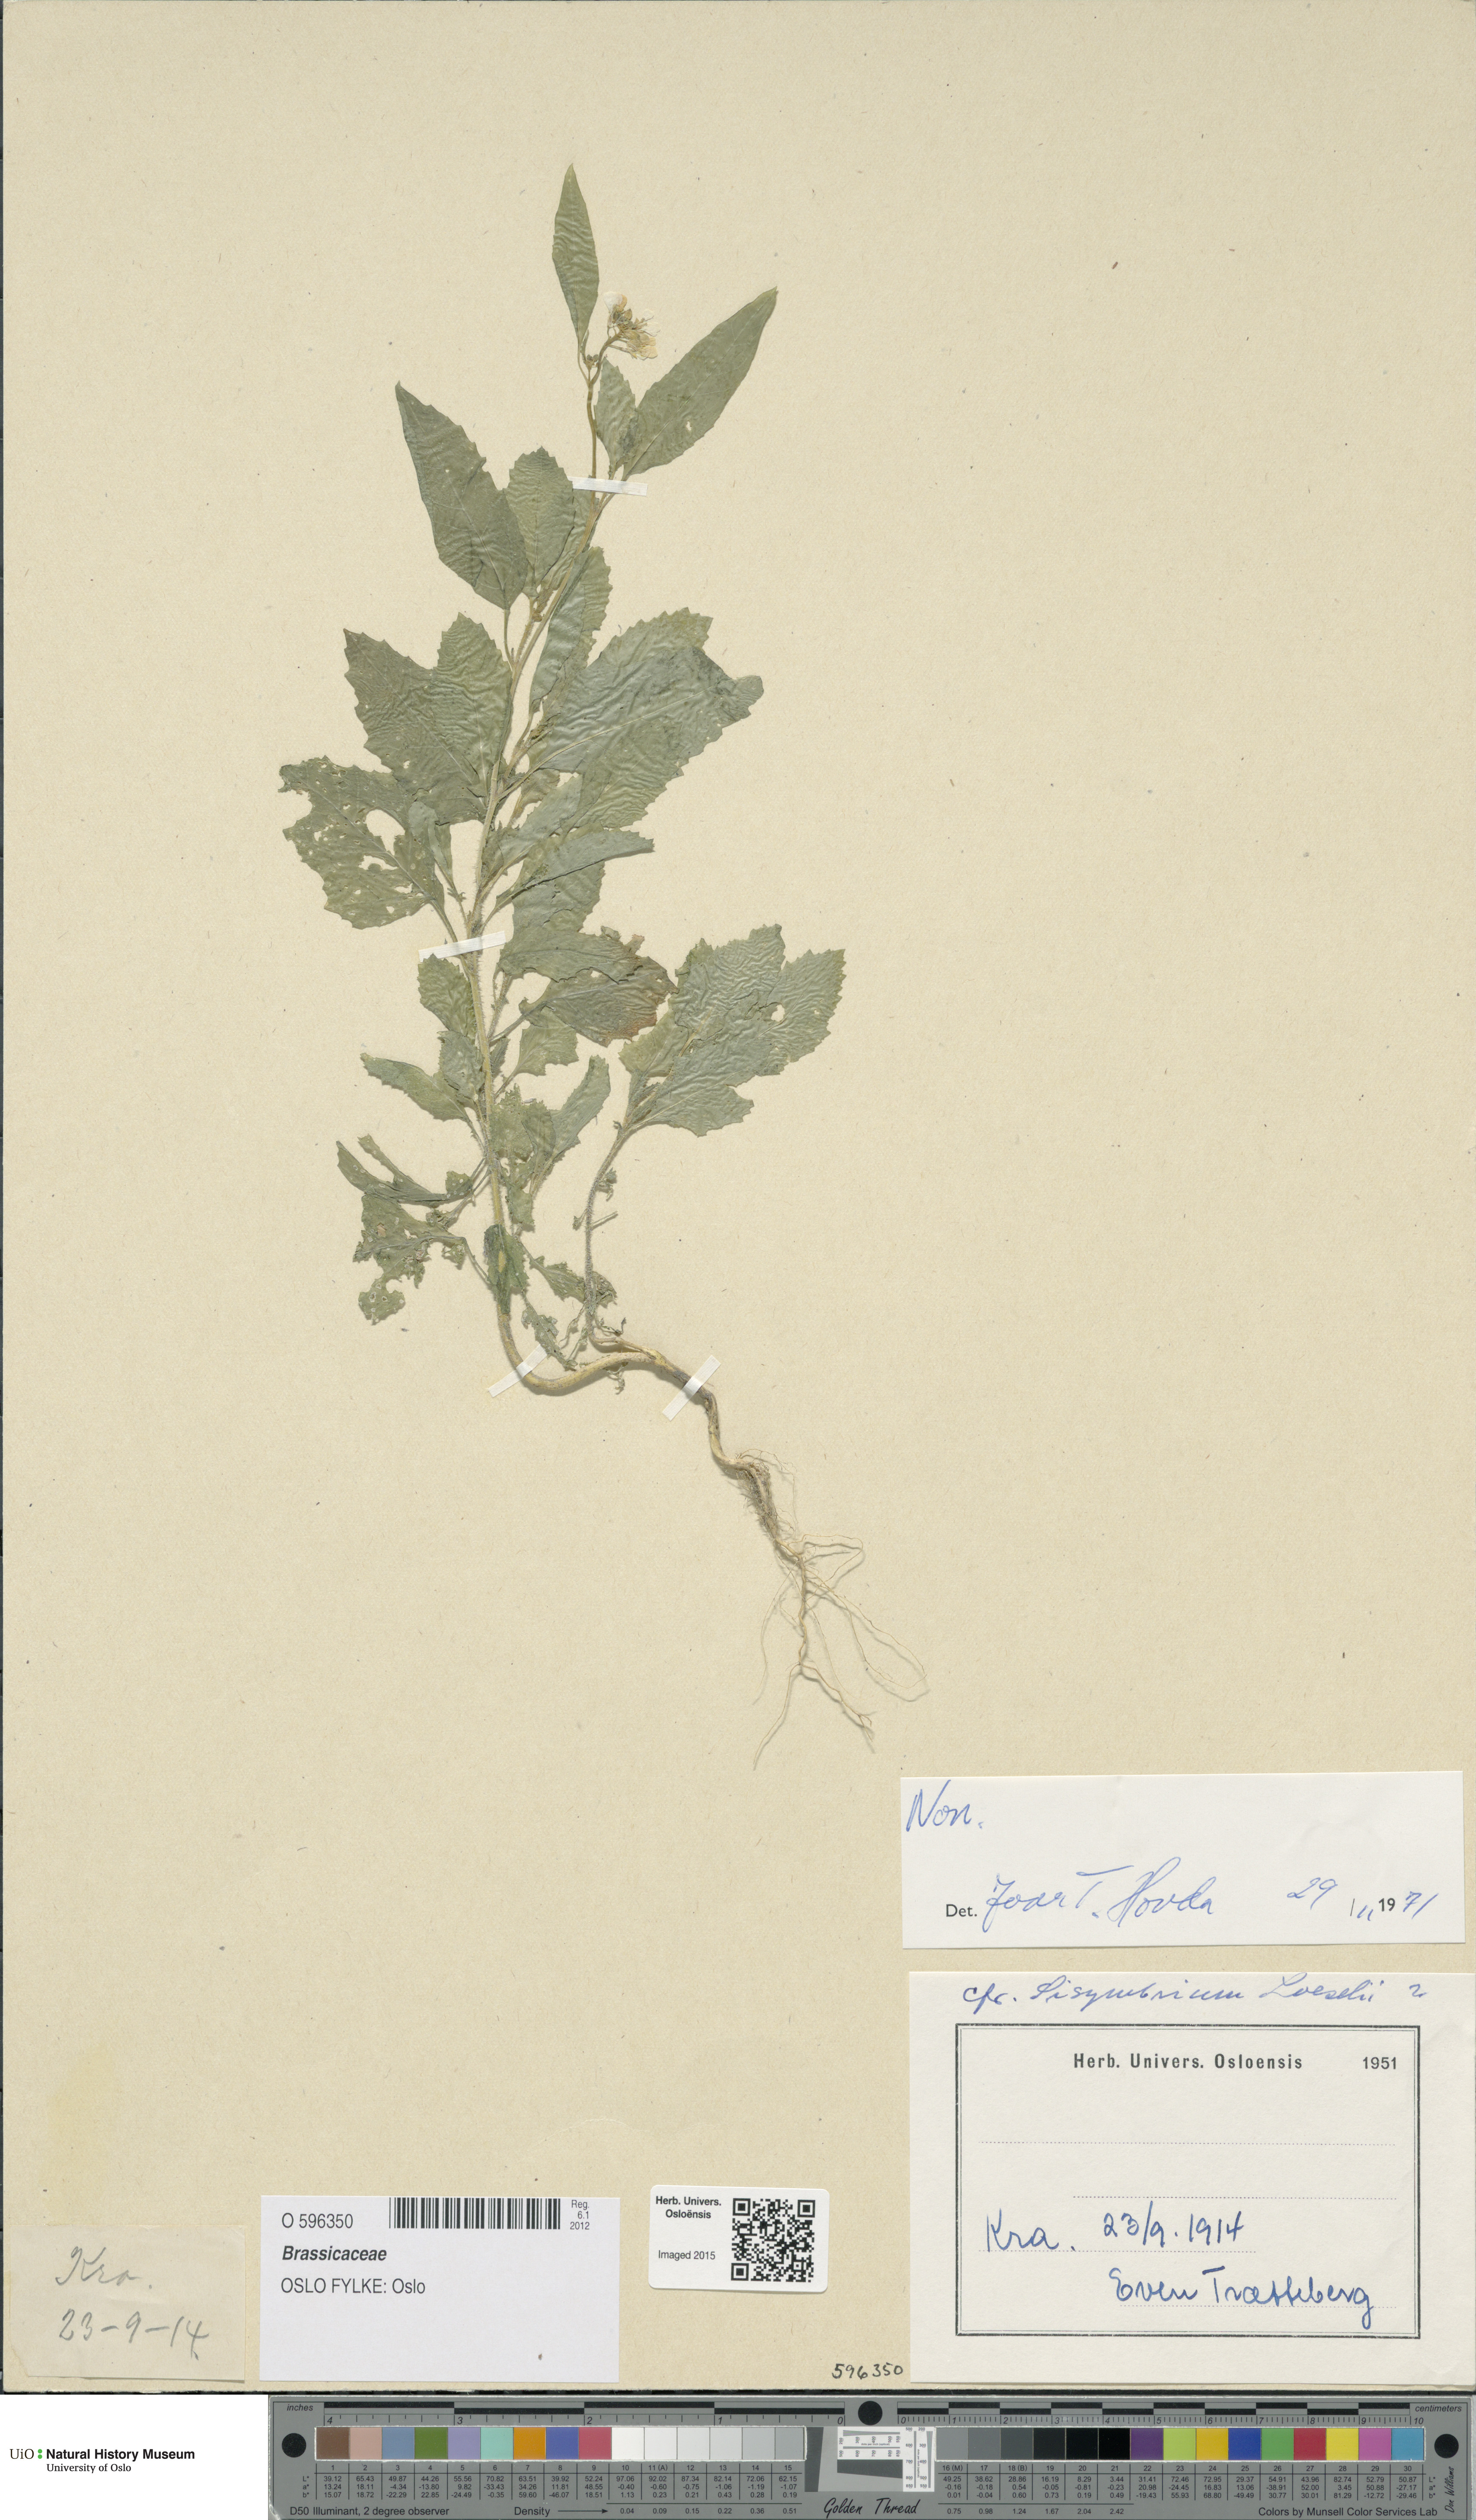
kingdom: Plantae
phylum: Tracheophyta
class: Magnoliopsida
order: Brassicales
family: Brassicaceae
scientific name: Brassicaceae
